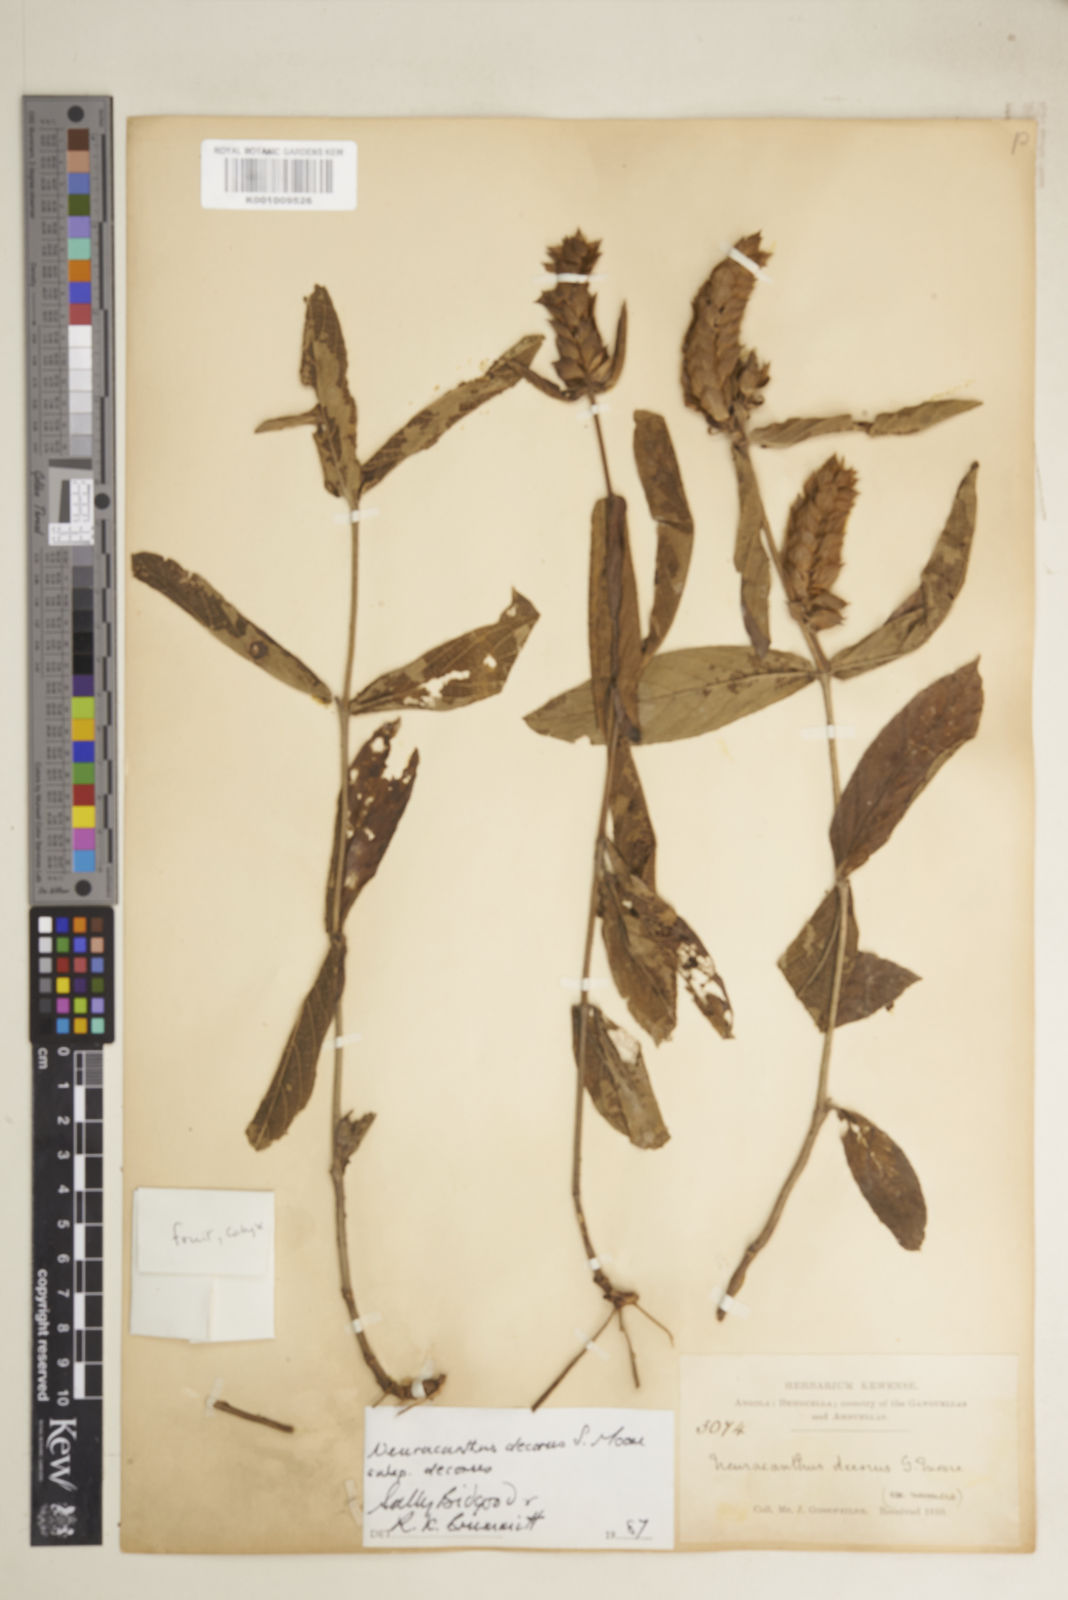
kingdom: Plantae
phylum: Tracheophyta
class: Magnoliopsida
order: Lamiales
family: Acanthaceae
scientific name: Acanthaceae
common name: Acanthaceae
